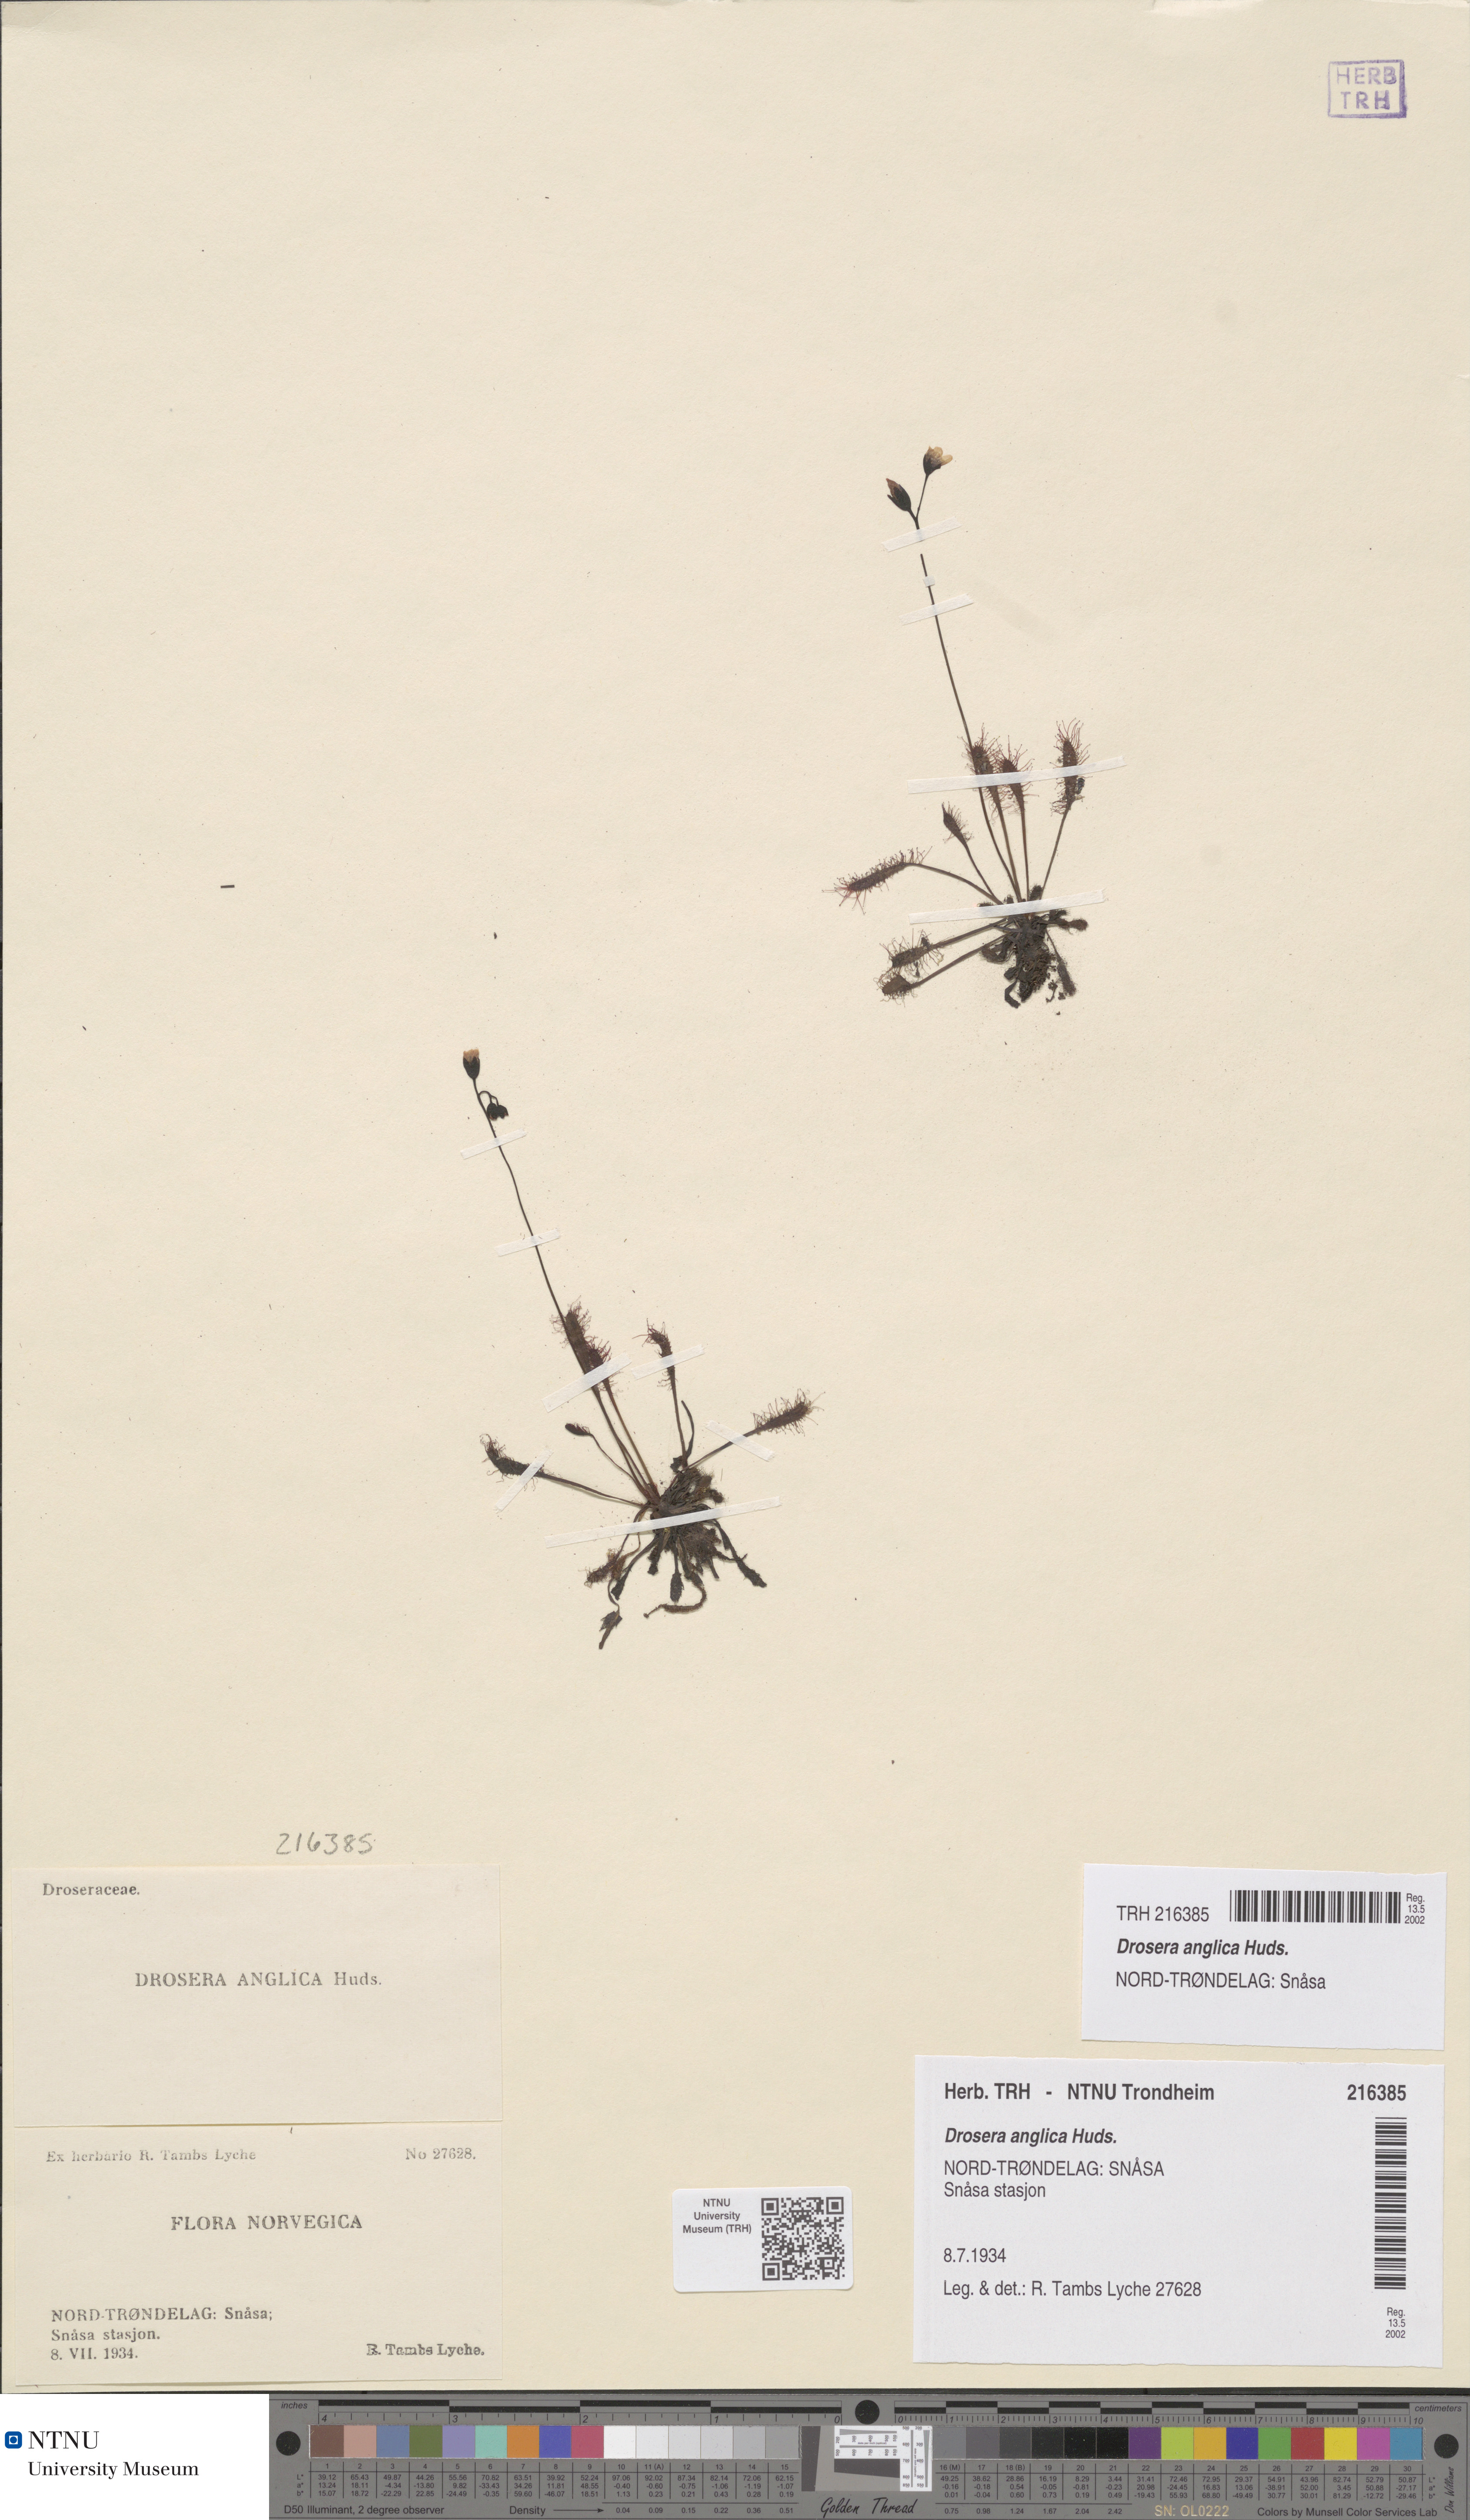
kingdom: Plantae
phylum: Tracheophyta
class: Magnoliopsida
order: Caryophyllales
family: Droseraceae
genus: Drosera
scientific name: Drosera anglica
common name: Great sundew
